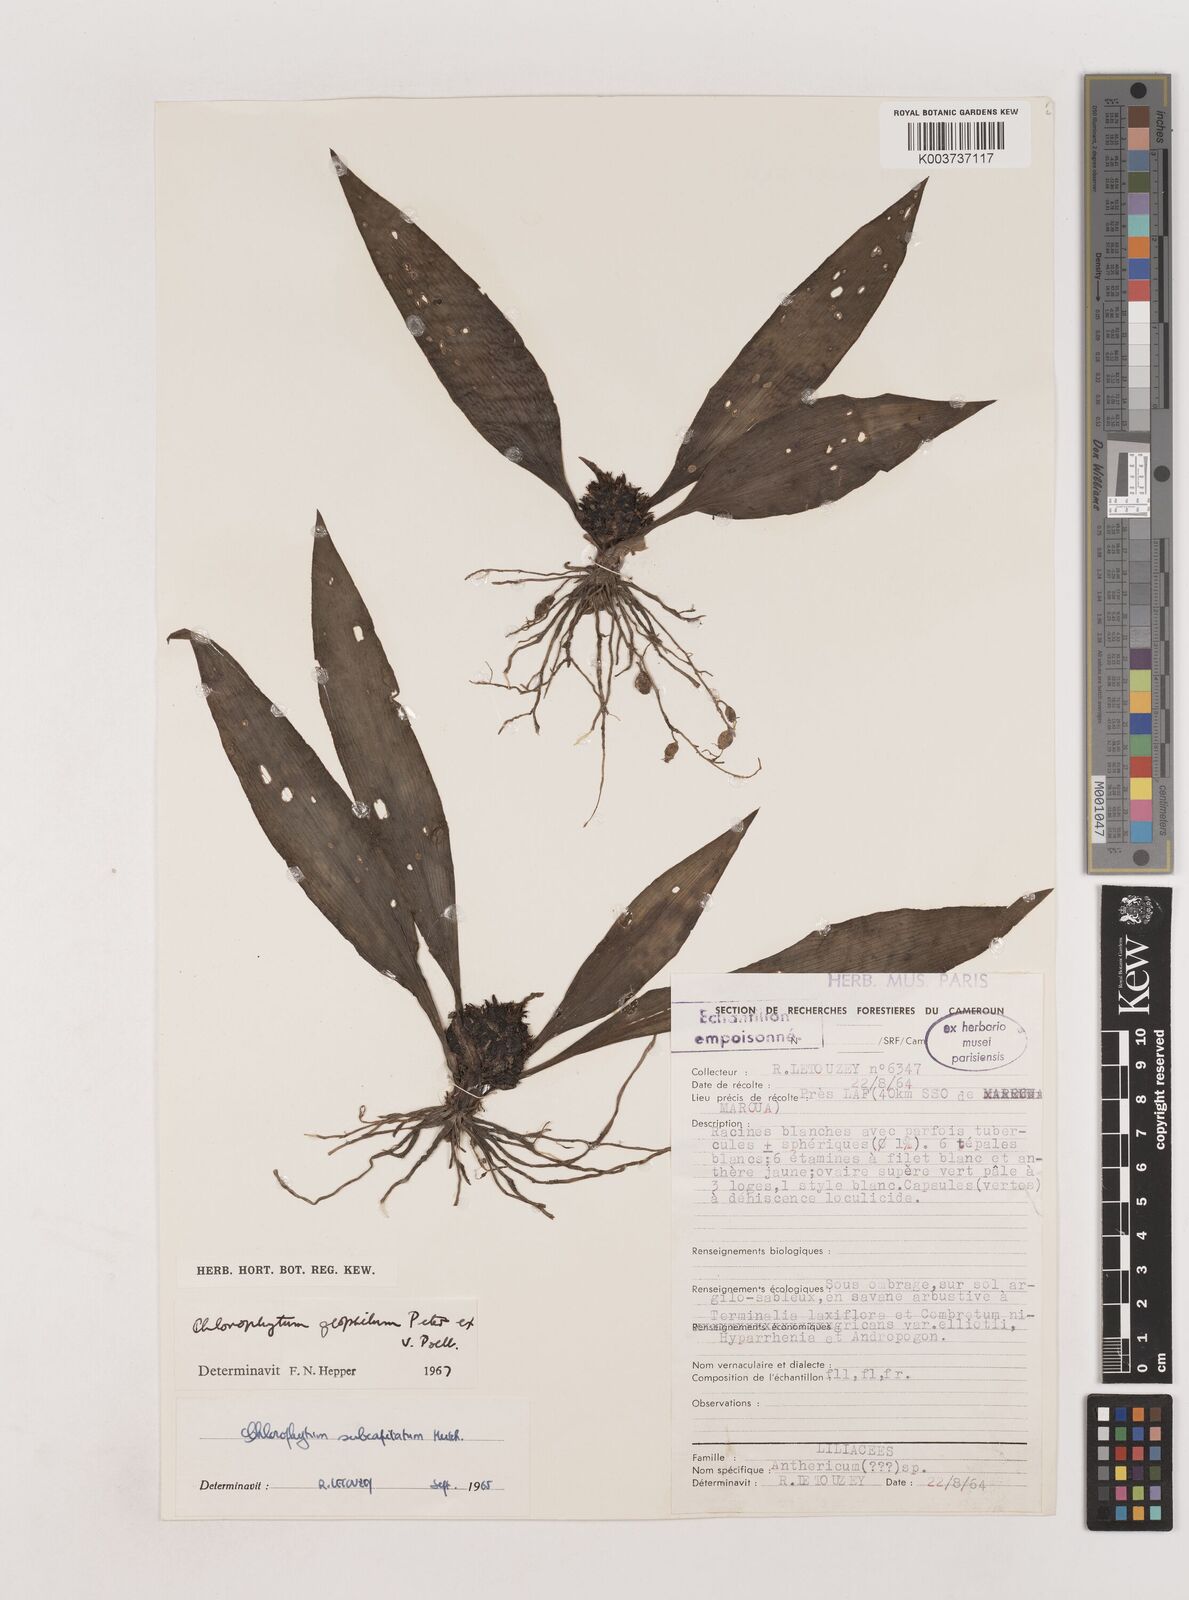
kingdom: Plantae
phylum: Tracheophyta
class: Liliopsida
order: Asparagales
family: Asparagaceae
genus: Chlorophytum
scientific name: Chlorophytum geophilum
